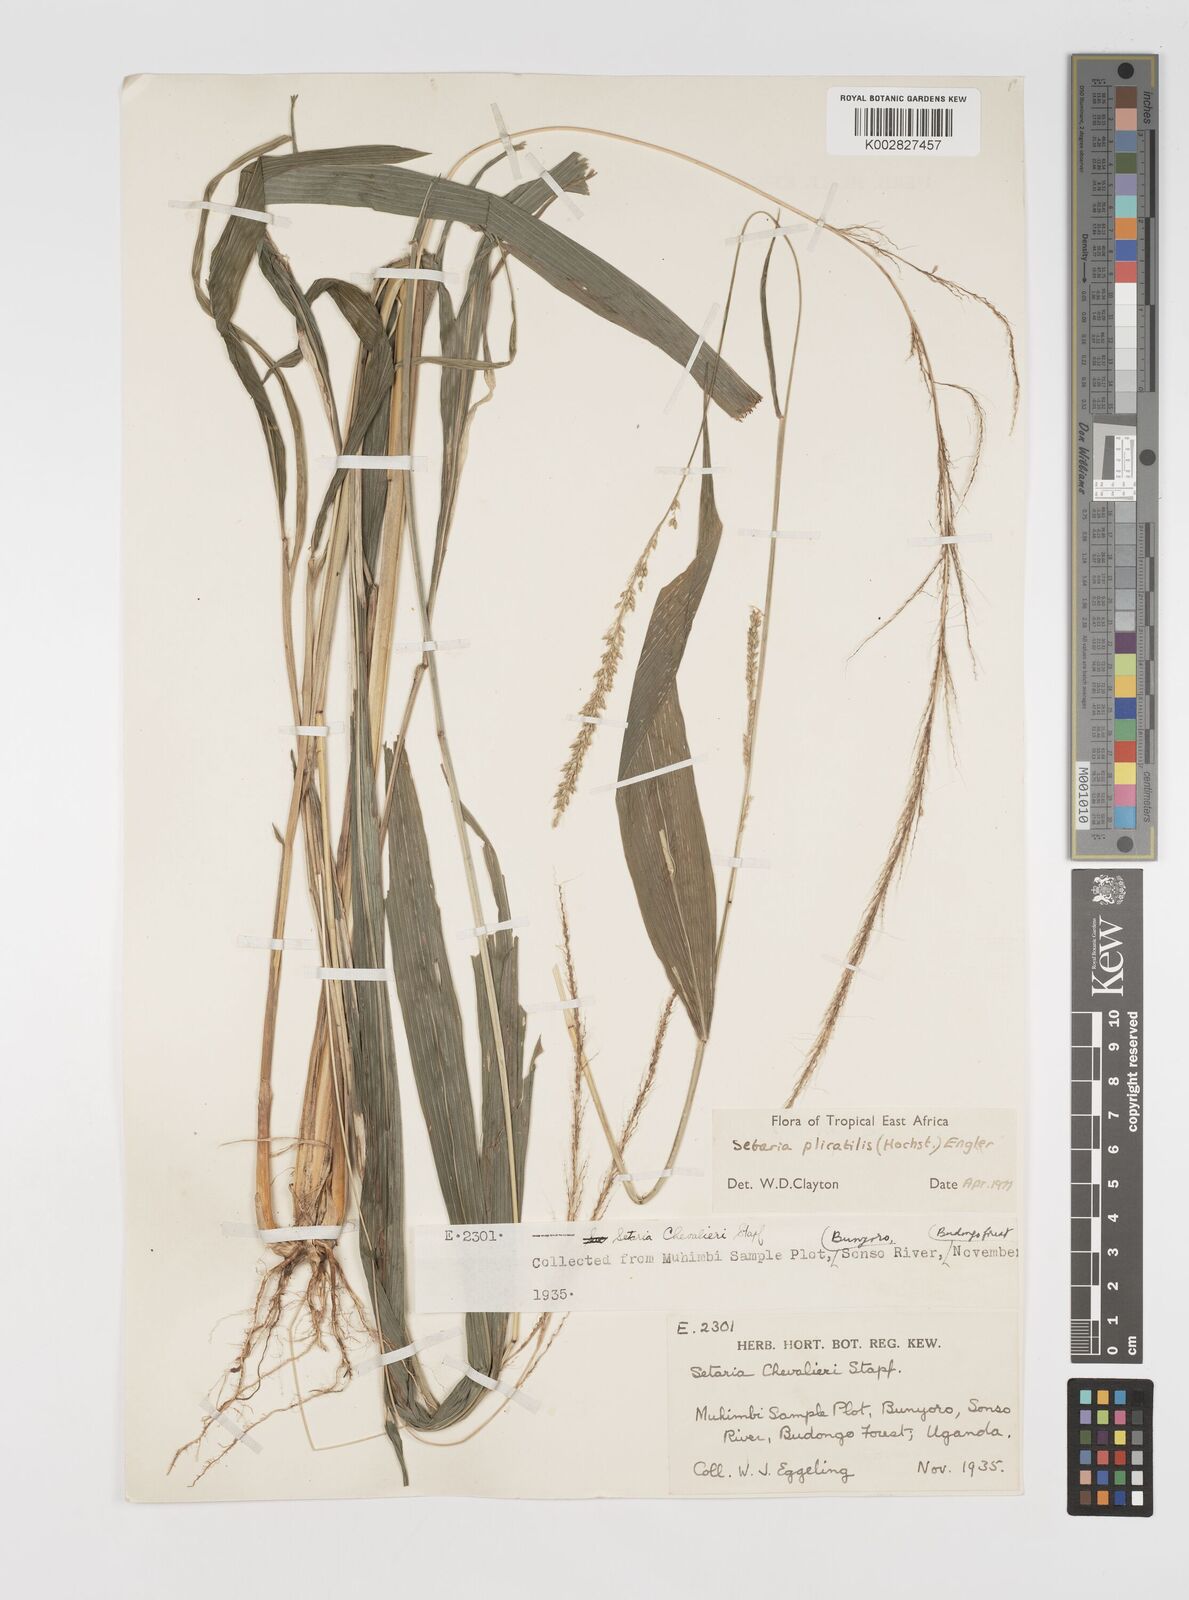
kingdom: Plantae
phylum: Tracheophyta
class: Liliopsida
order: Poales
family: Poaceae
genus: Setaria
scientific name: Setaria megaphylla
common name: Bigleaf bristlegrass
